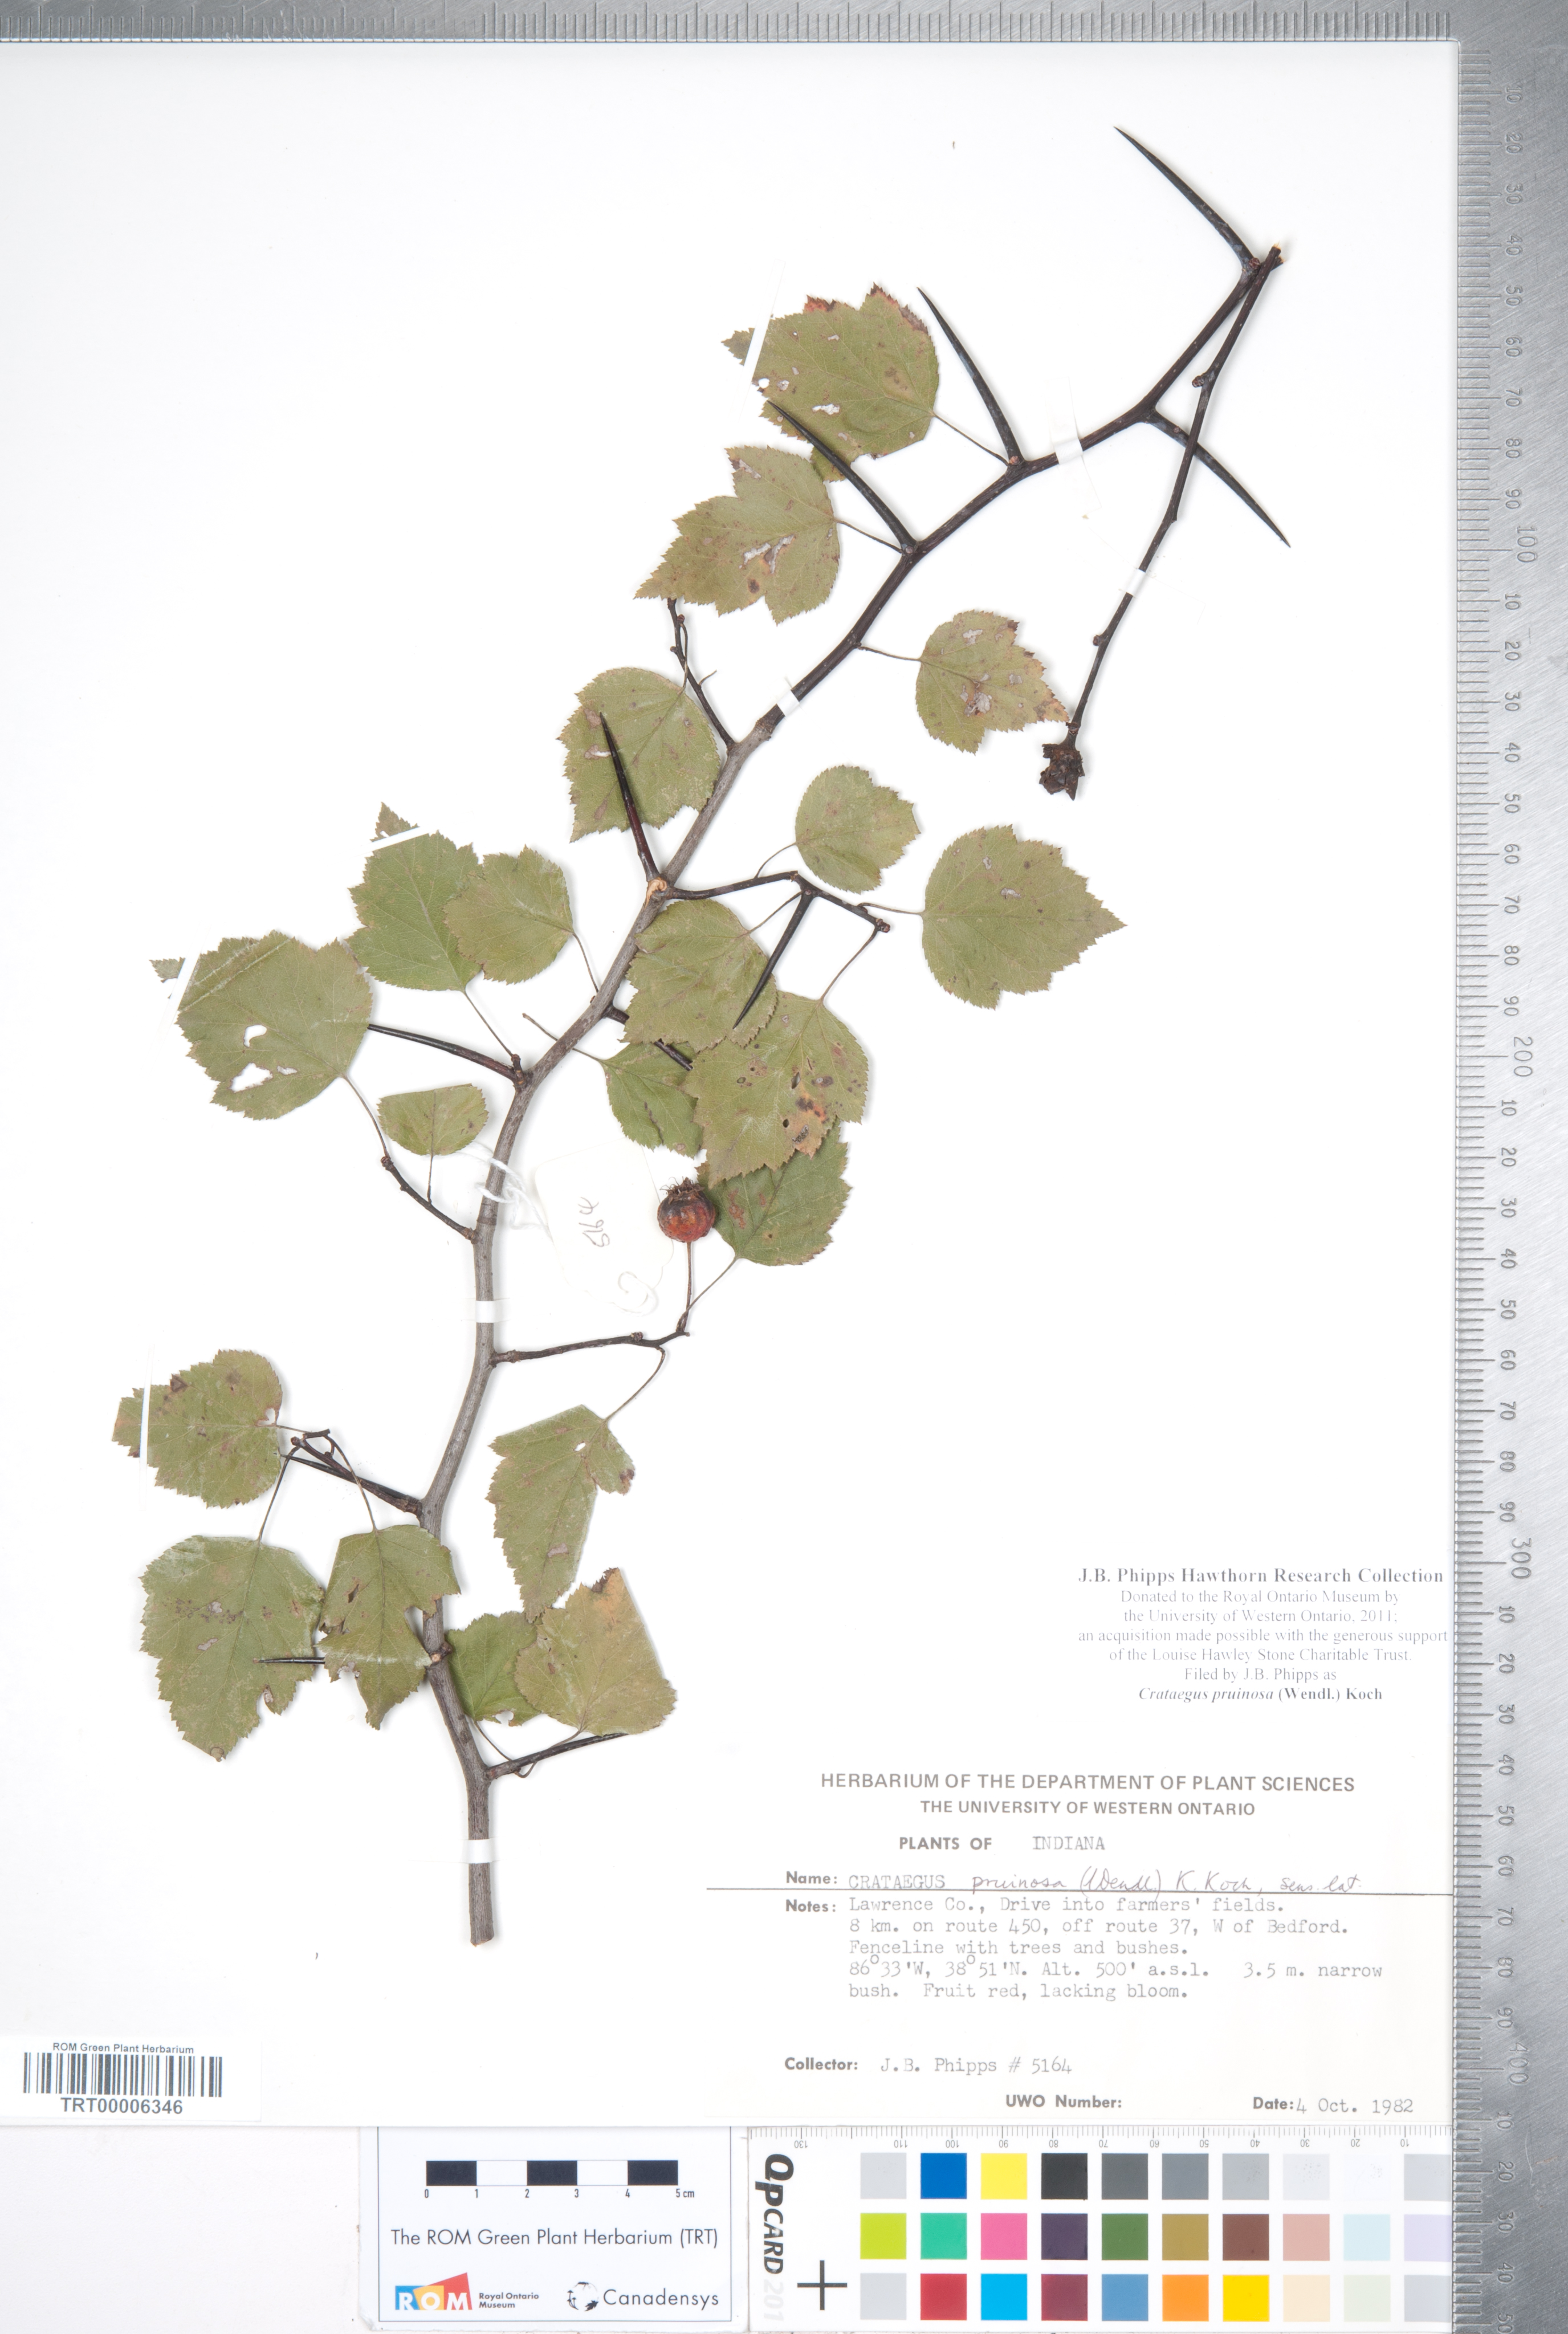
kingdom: Plantae
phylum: Tracheophyta
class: Magnoliopsida
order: Rosales
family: Rosaceae
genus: Crataegus
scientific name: Crataegus pruinosa
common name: Waxy-fruit hawthorn
